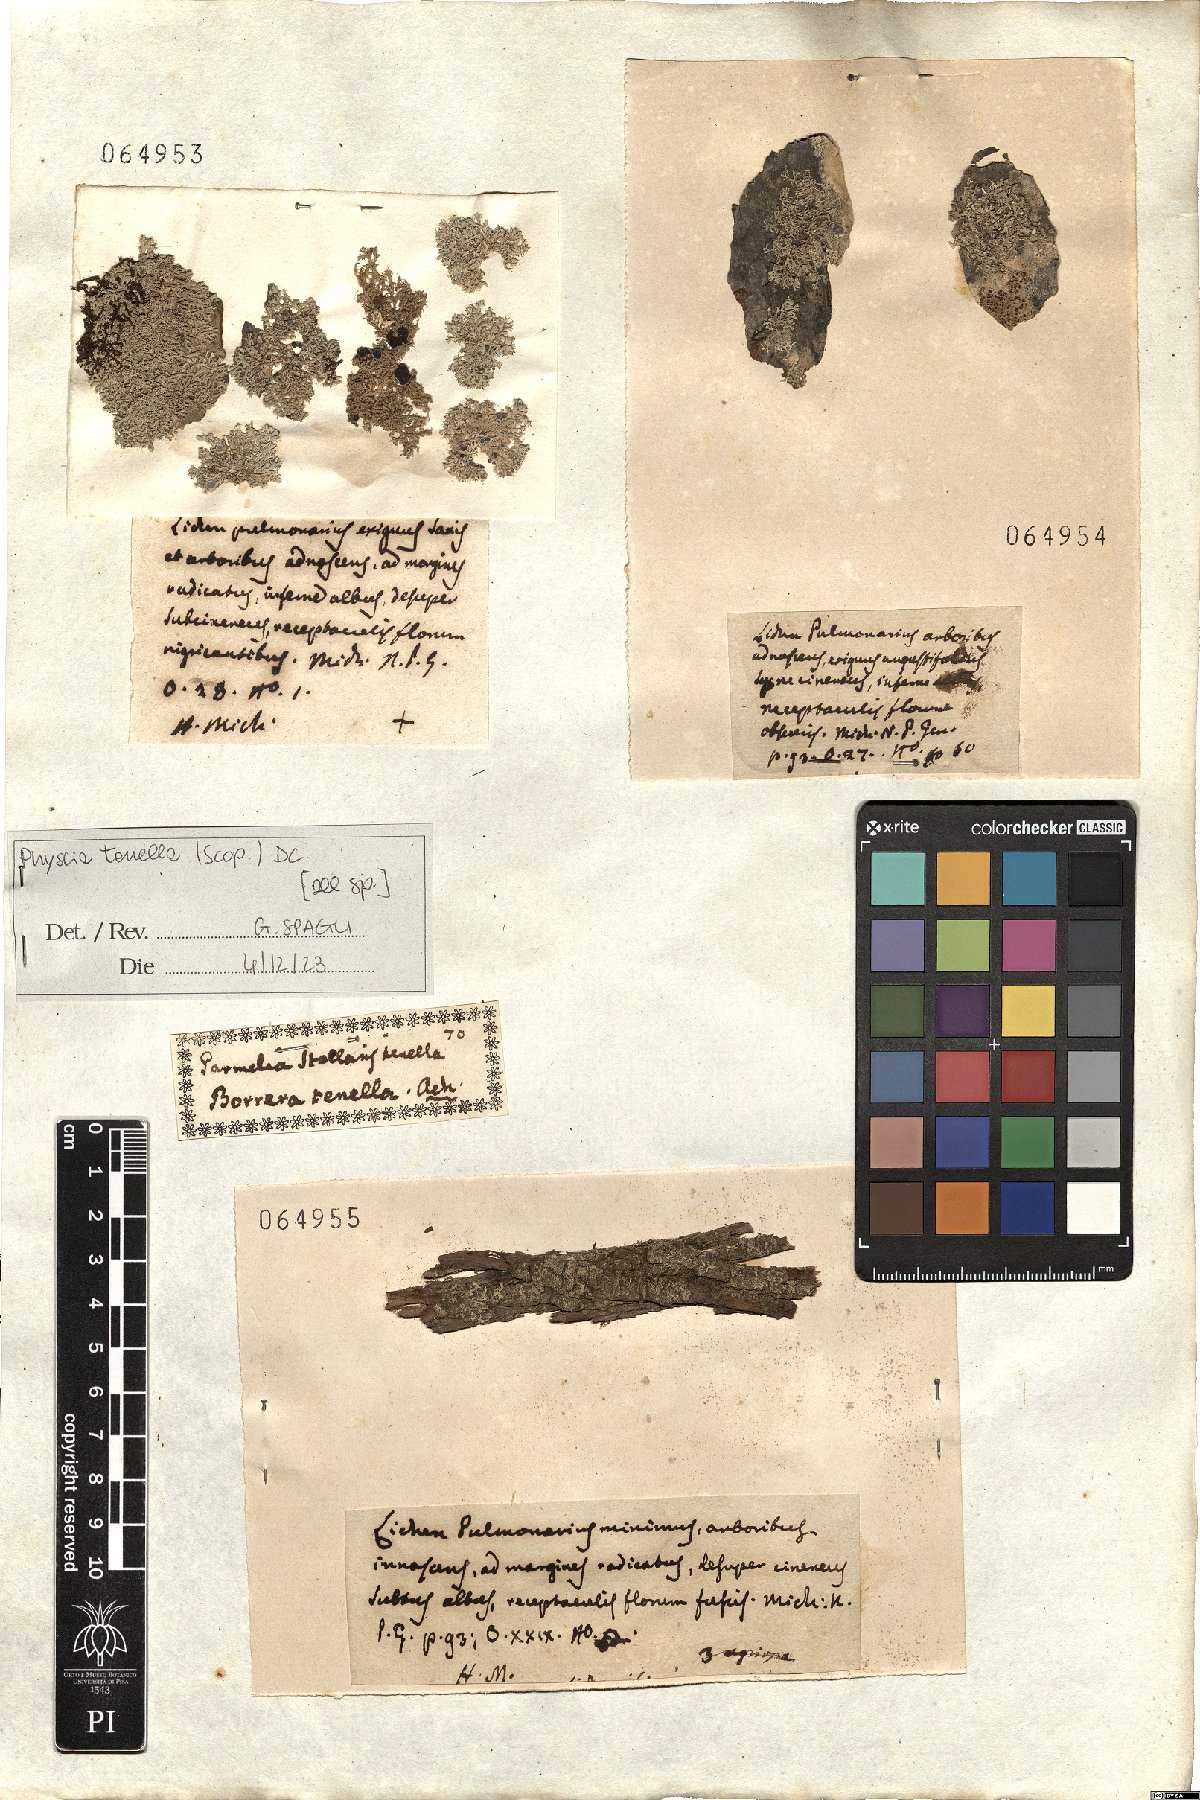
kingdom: Fungi
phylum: Ascomycota
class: Lecanoromycetes
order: Caliciales
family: Physciaceae
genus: Physcia
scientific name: Physcia tenella
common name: Fringed rosette lichen
